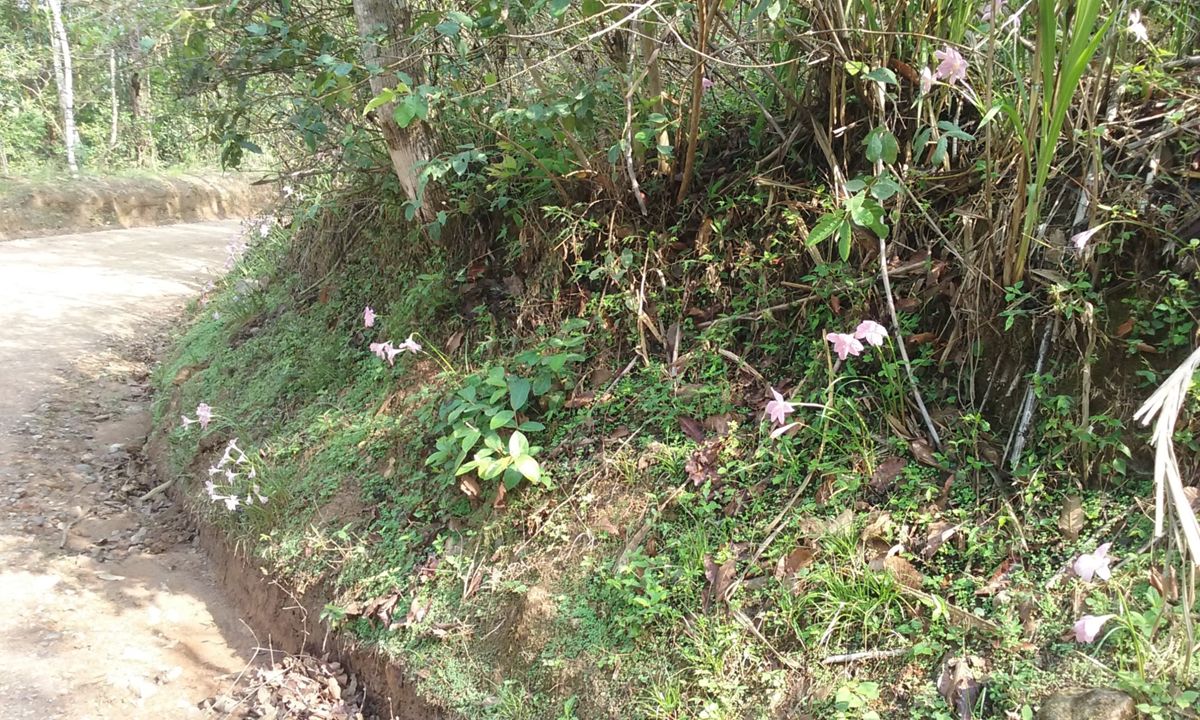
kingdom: Plantae
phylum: Tracheophyta
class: Liliopsida
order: Asparagales
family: Amaryllidaceae
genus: Zephyranthes
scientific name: Zephyranthes minuta
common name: Pink rain lily
